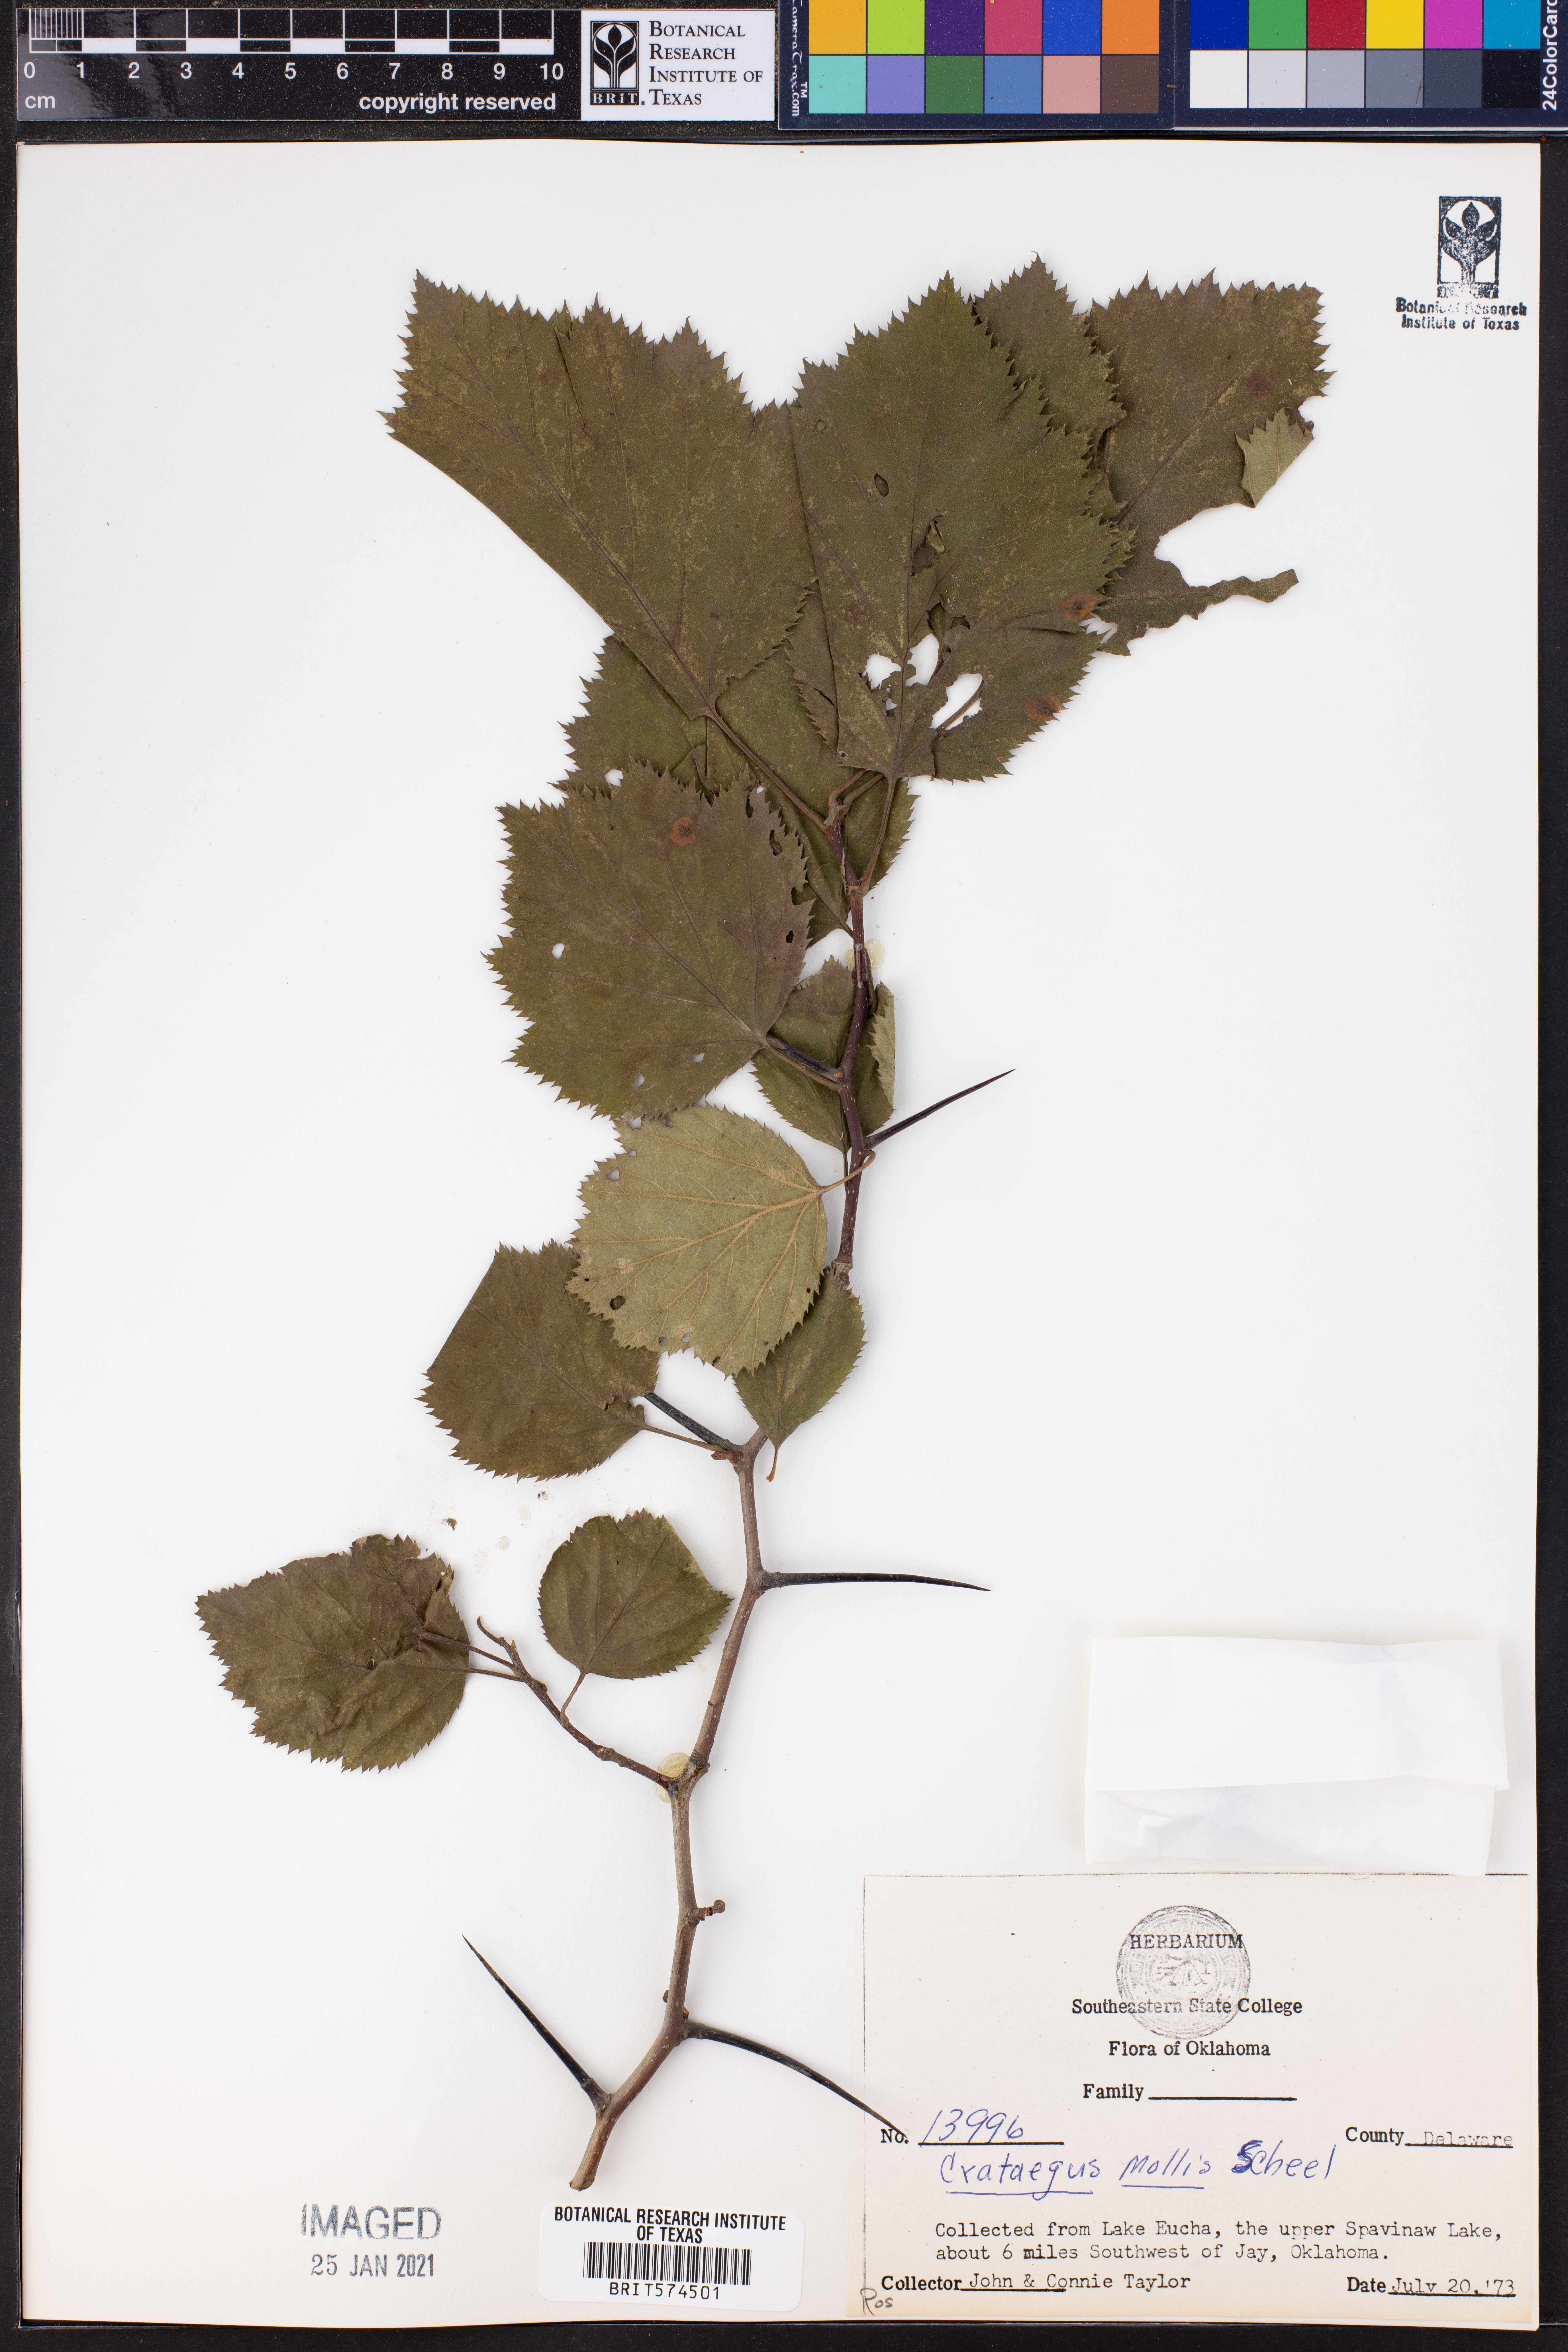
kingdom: Plantae
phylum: Tracheophyta
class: Magnoliopsida
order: Rosales
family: Rosaceae
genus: Crataegus
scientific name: Crataegus mollis
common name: Downy hawthorn
